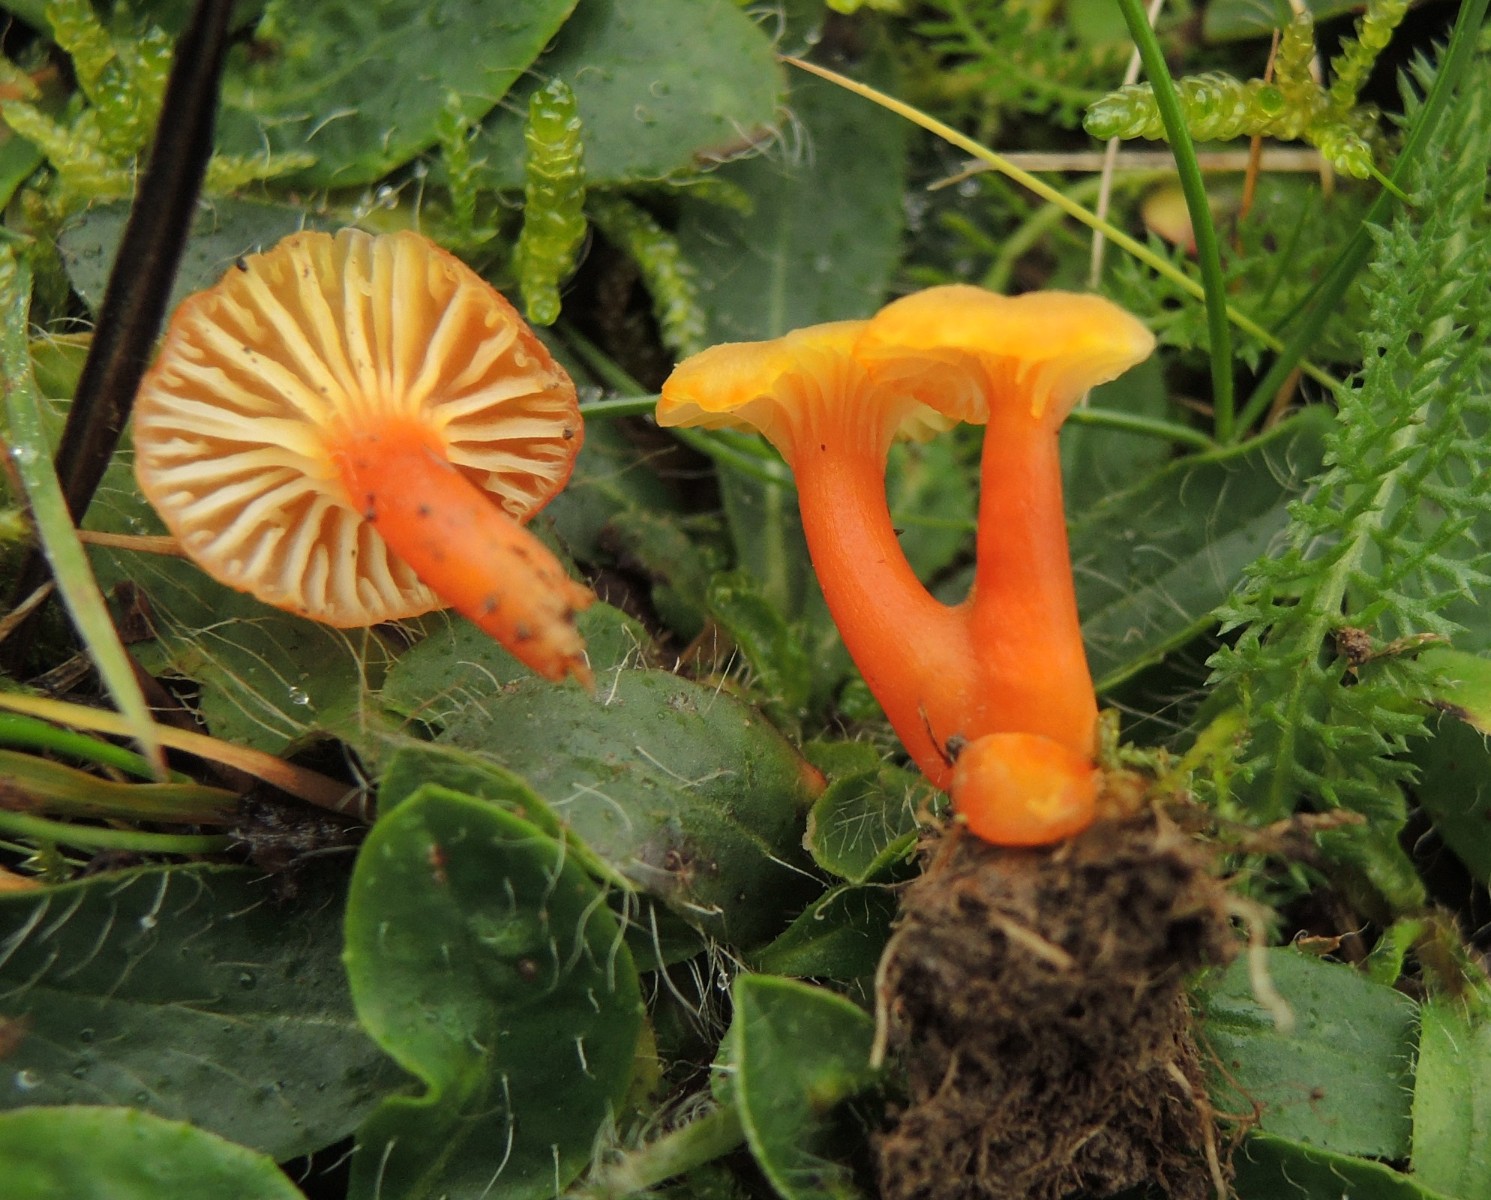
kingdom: Fungi
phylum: Basidiomycota
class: Agaricomycetes
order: Agaricales
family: Hygrophoraceae
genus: Hygrocybe
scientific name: Hygrocybe insipida
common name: liden vokshat
